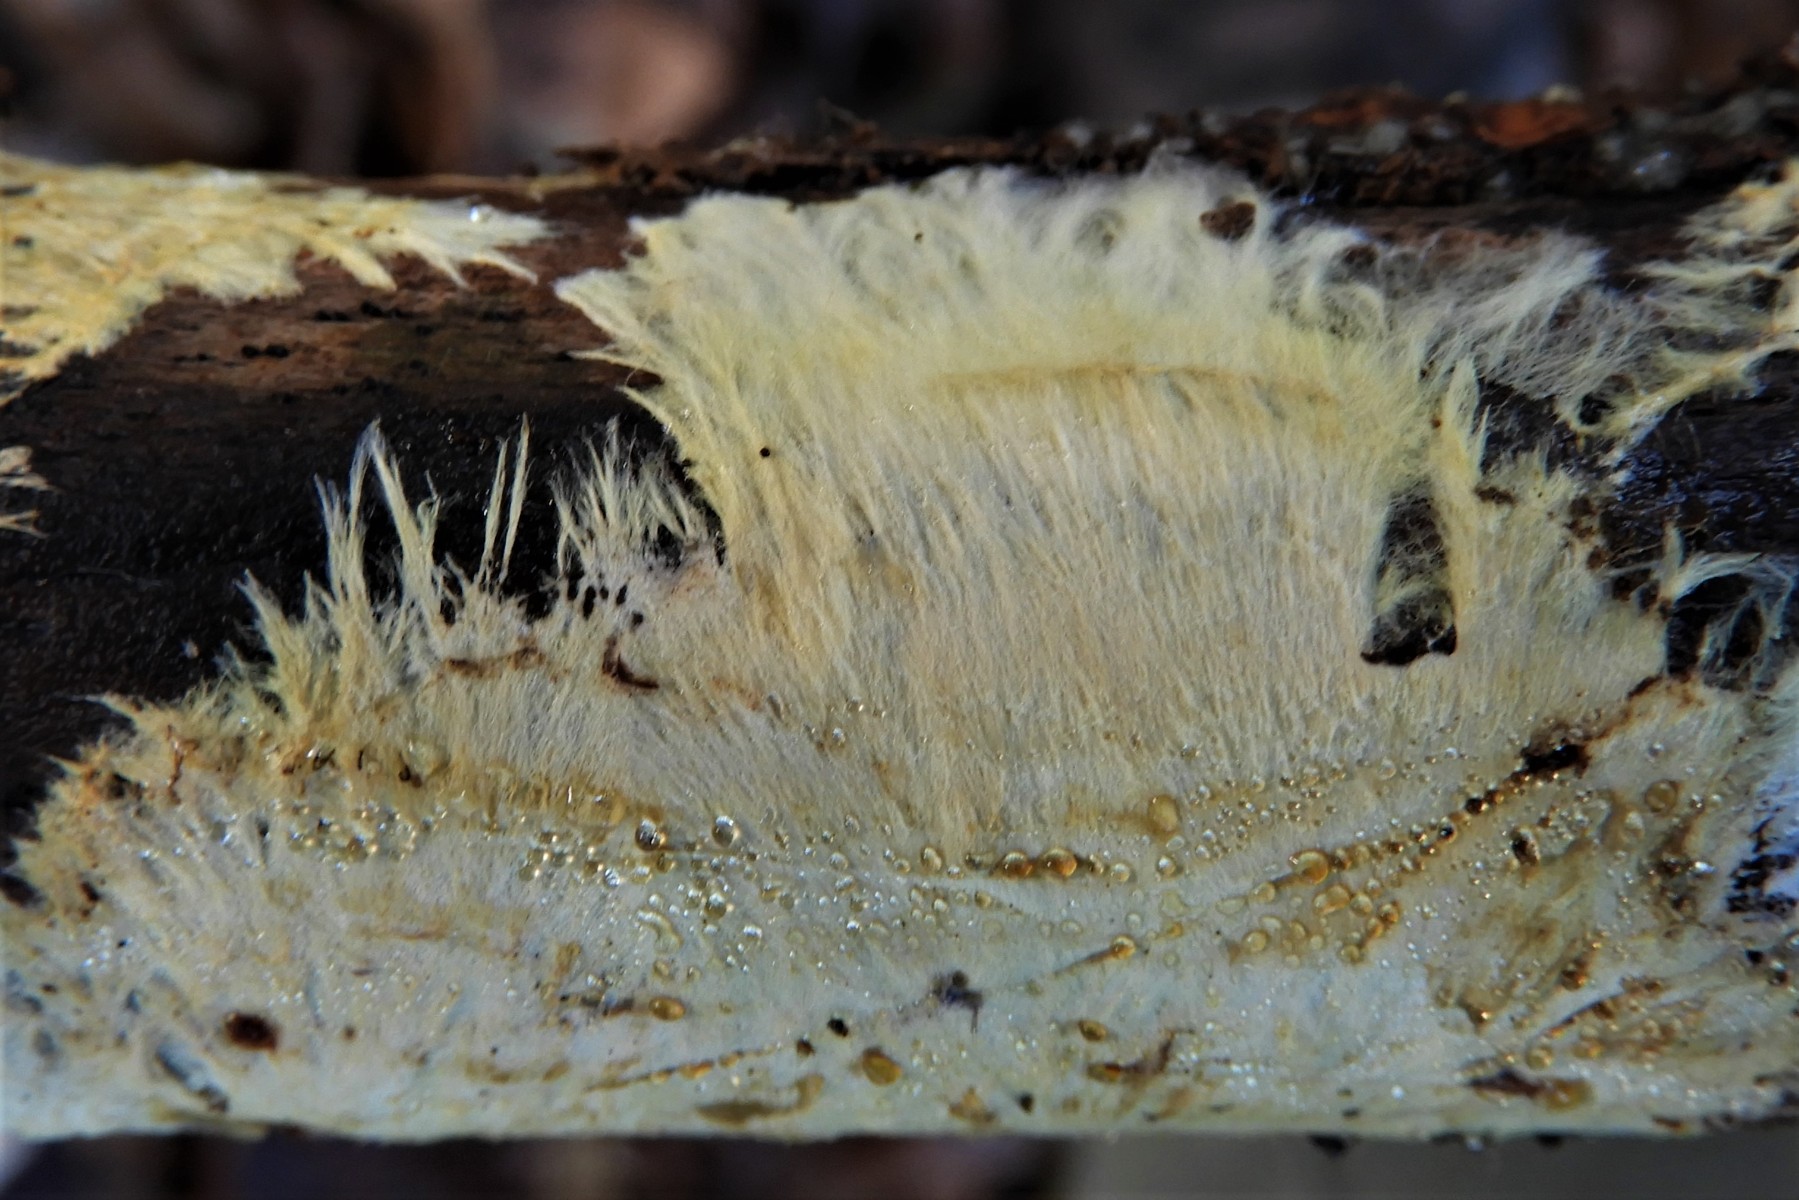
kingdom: Fungi
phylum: Basidiomycota
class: Agaricomycetes
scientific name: Agaricomycetes
